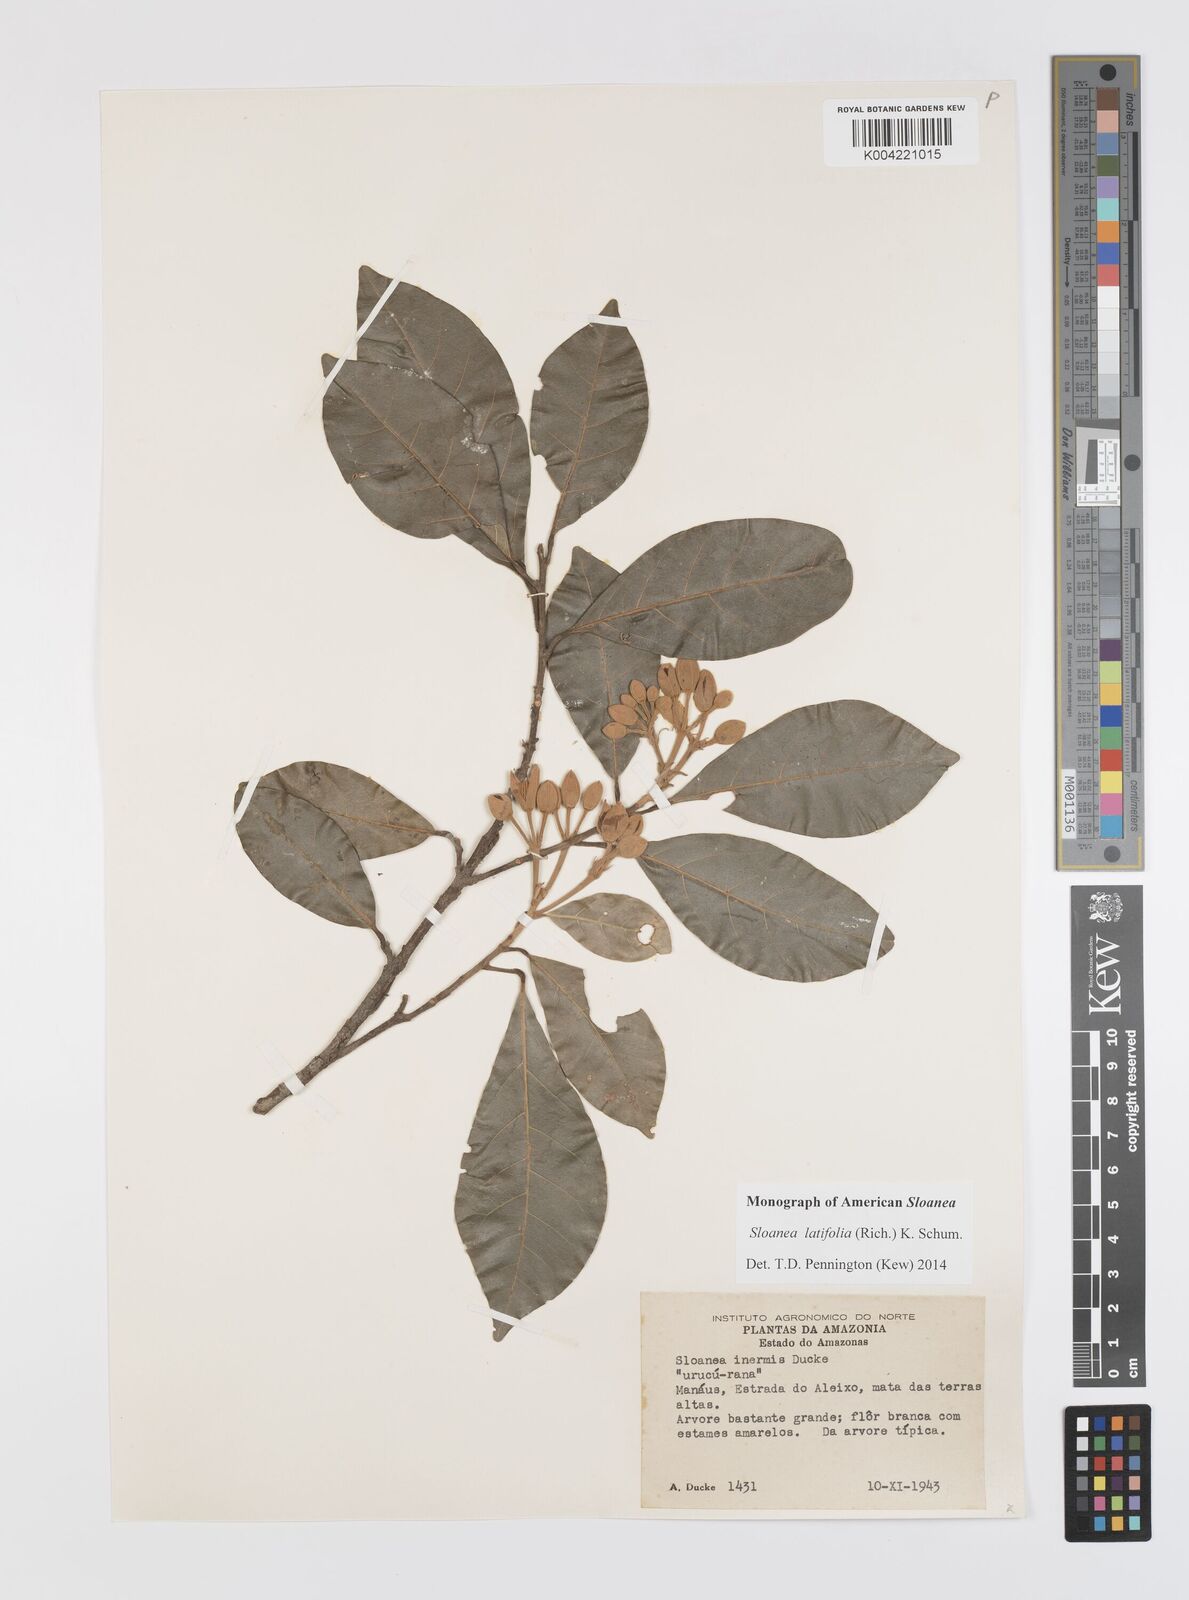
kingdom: Plantae
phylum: Tracheophyta
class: Magnoliopsida
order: Oxalidales
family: Elaeocarpaceae
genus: Sloanea
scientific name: Sloanea latifolia
